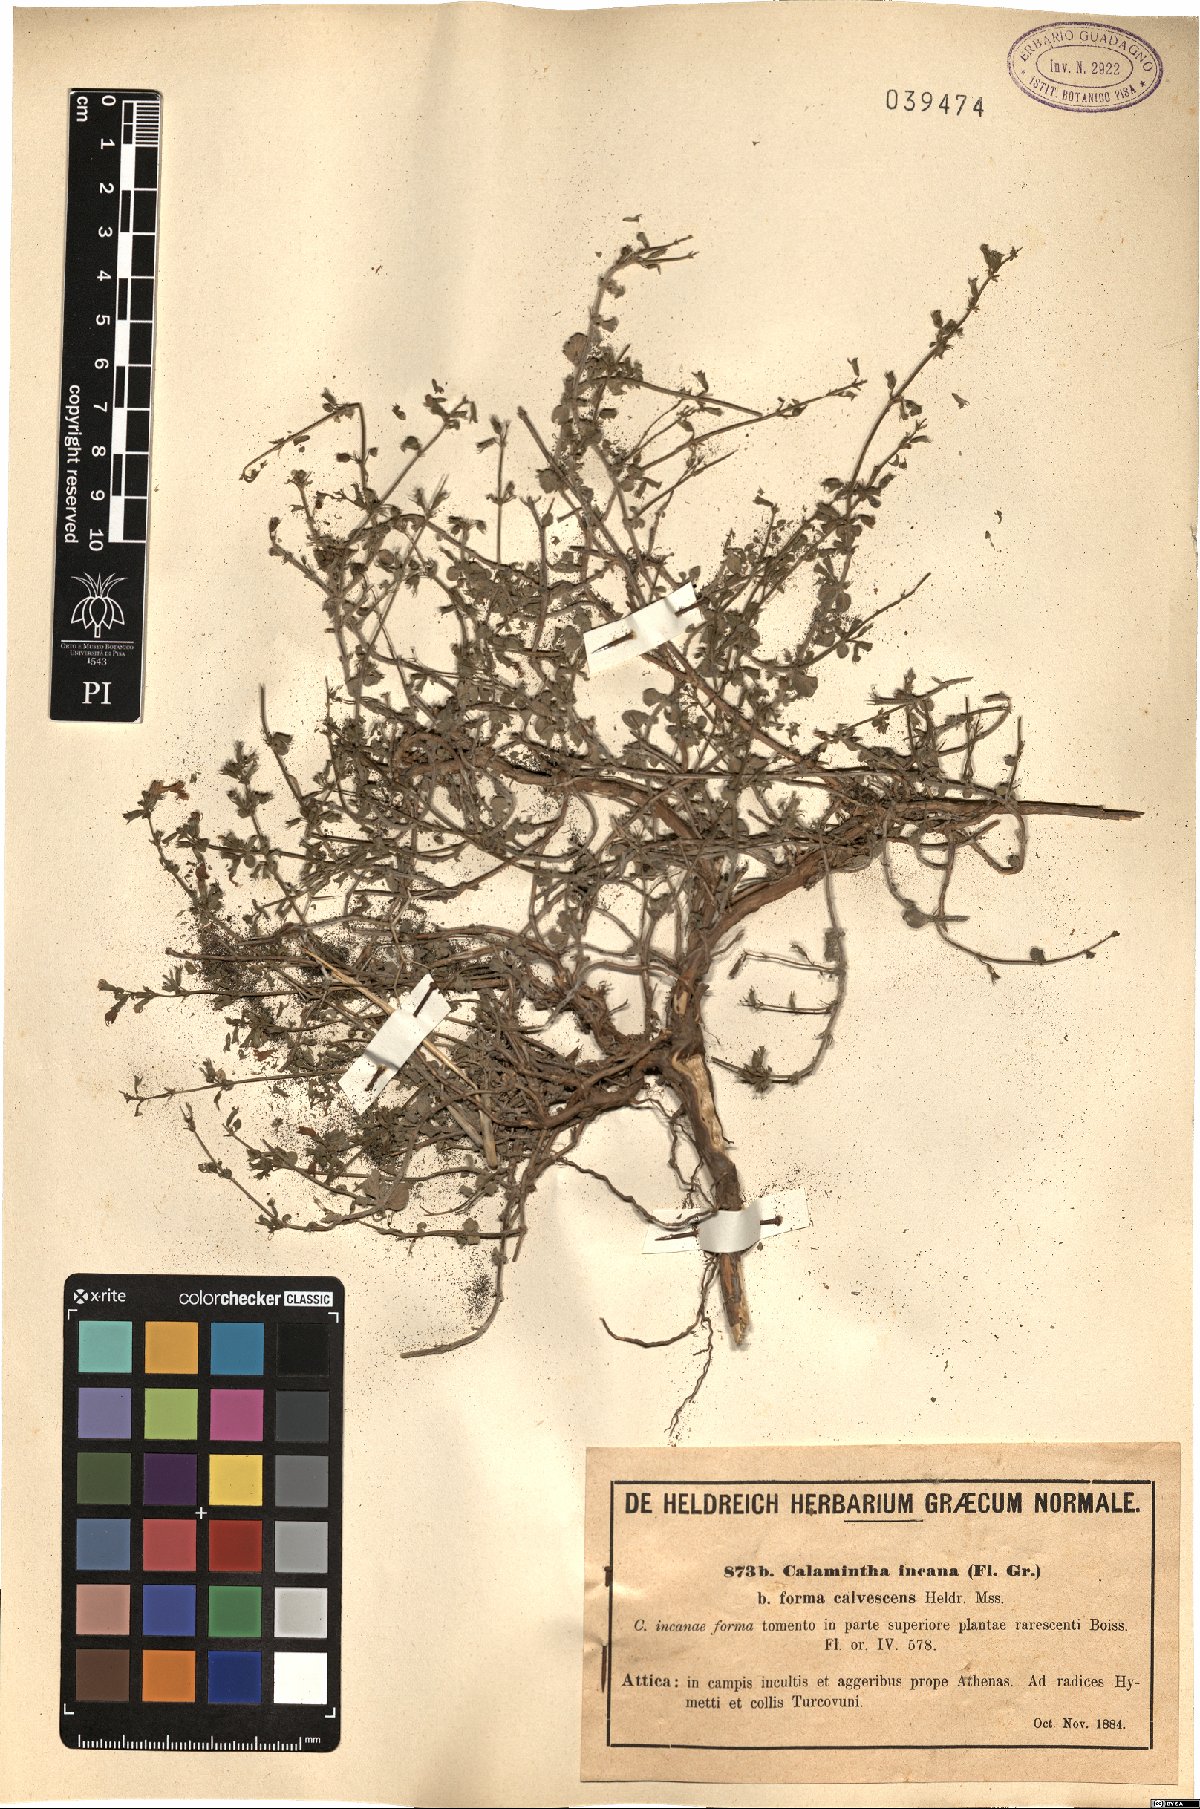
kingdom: Plantae
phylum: Tracheophyta
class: Magnoliopsida
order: Lamiales
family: Lamiaceae
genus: Clinopodium
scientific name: Clinopodium brevifolium
